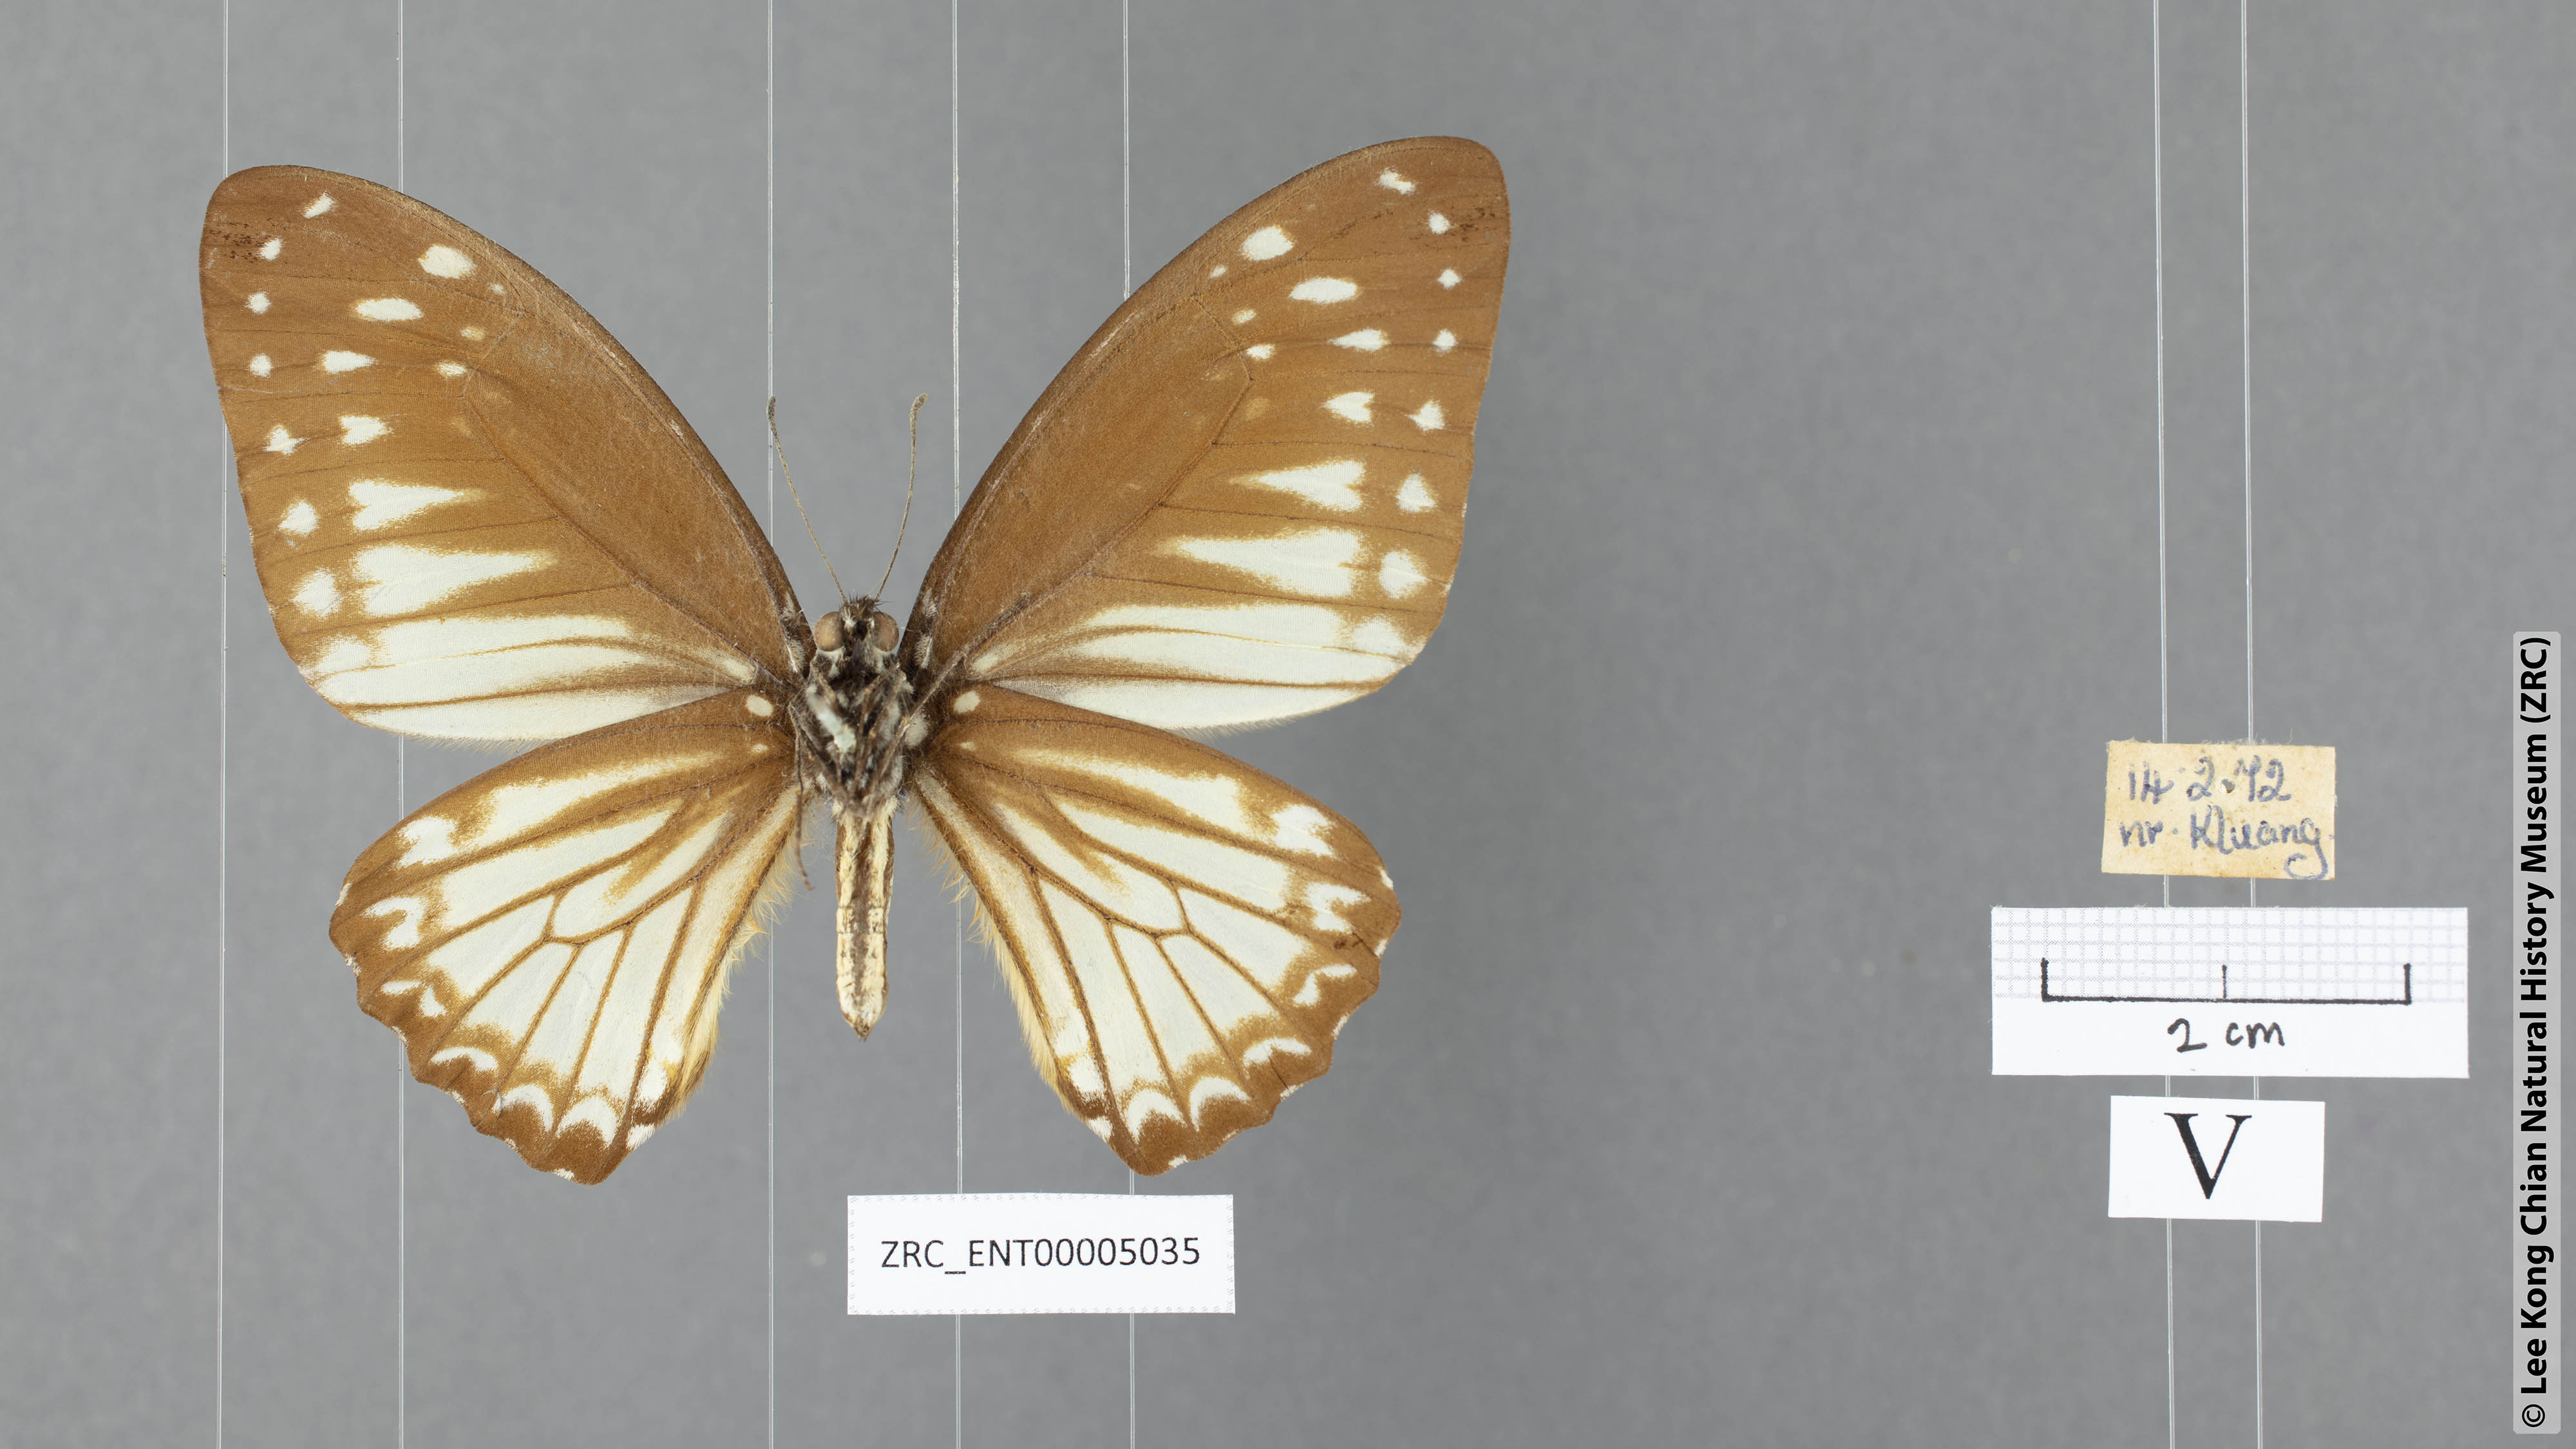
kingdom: Animalia
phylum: Arthropoda
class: Insecta
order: Lepidoptera
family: Papilionidae
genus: Graphium
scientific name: Graphium ramaceus
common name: Pendlebury's zebra
